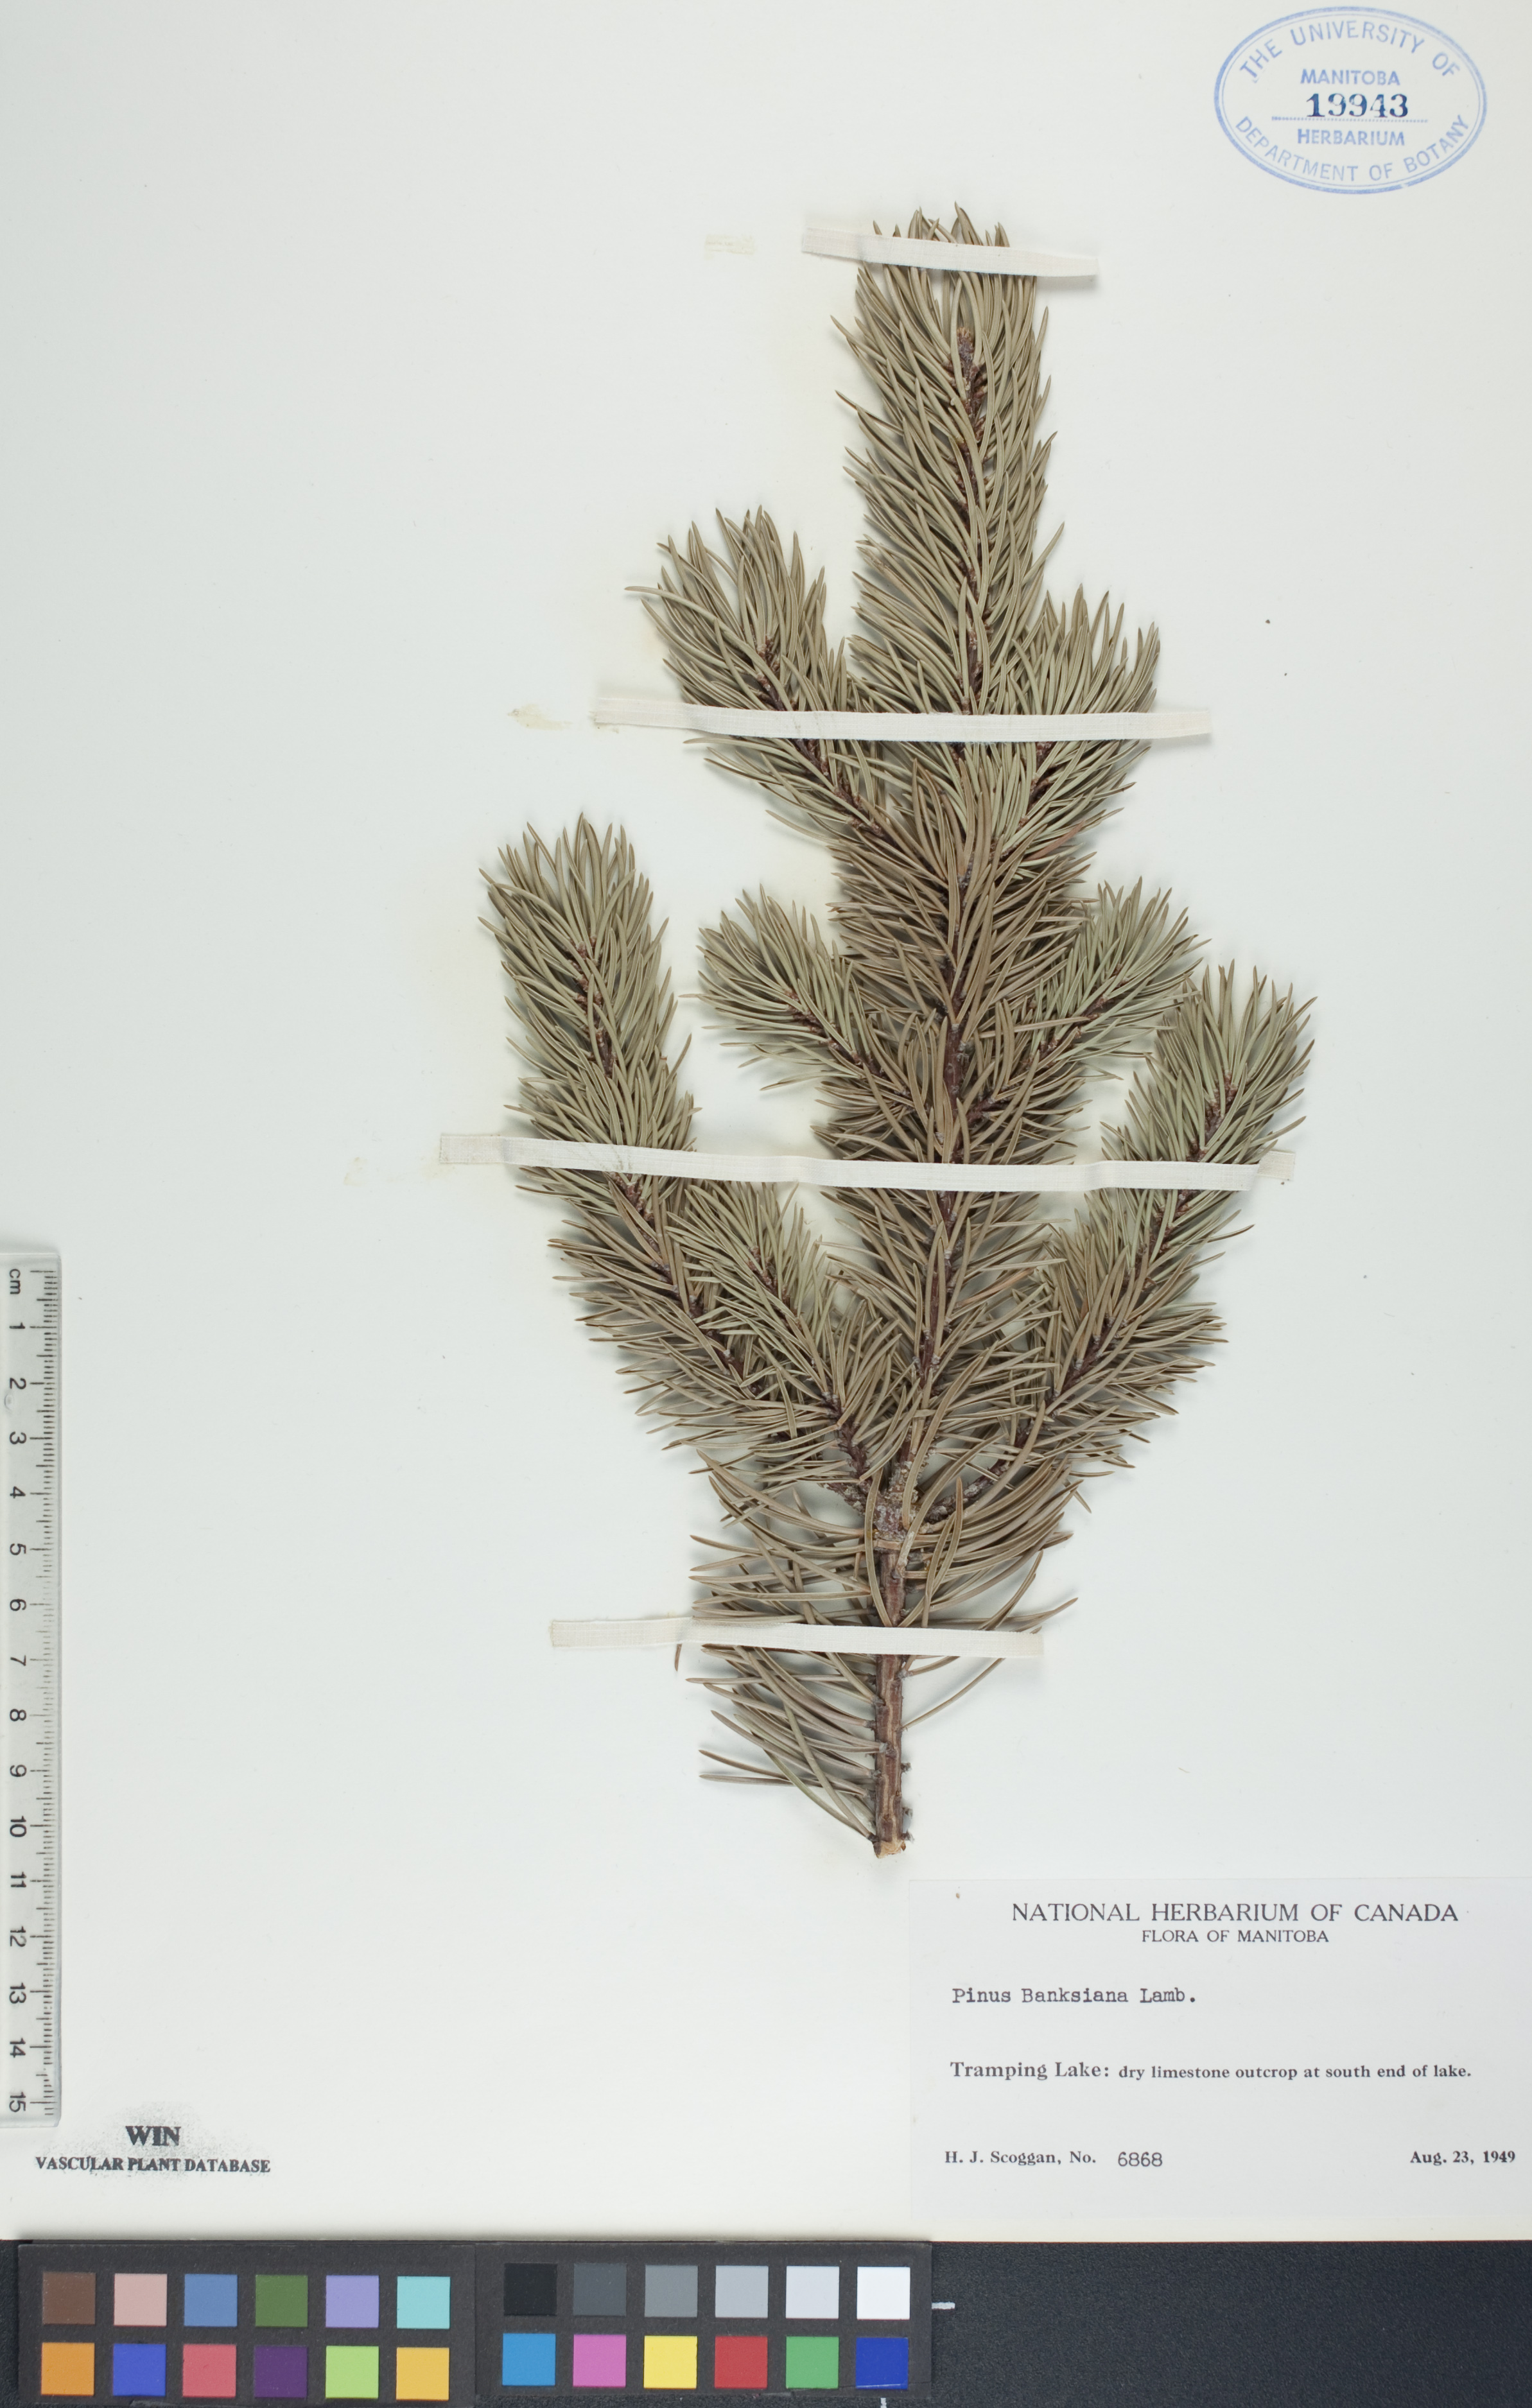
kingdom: Plantae
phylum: Tracheophyta
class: Pinopsida
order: Pinales
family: Pinaceae
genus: Pinus
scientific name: Pinus banksiana
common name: Jack pine
